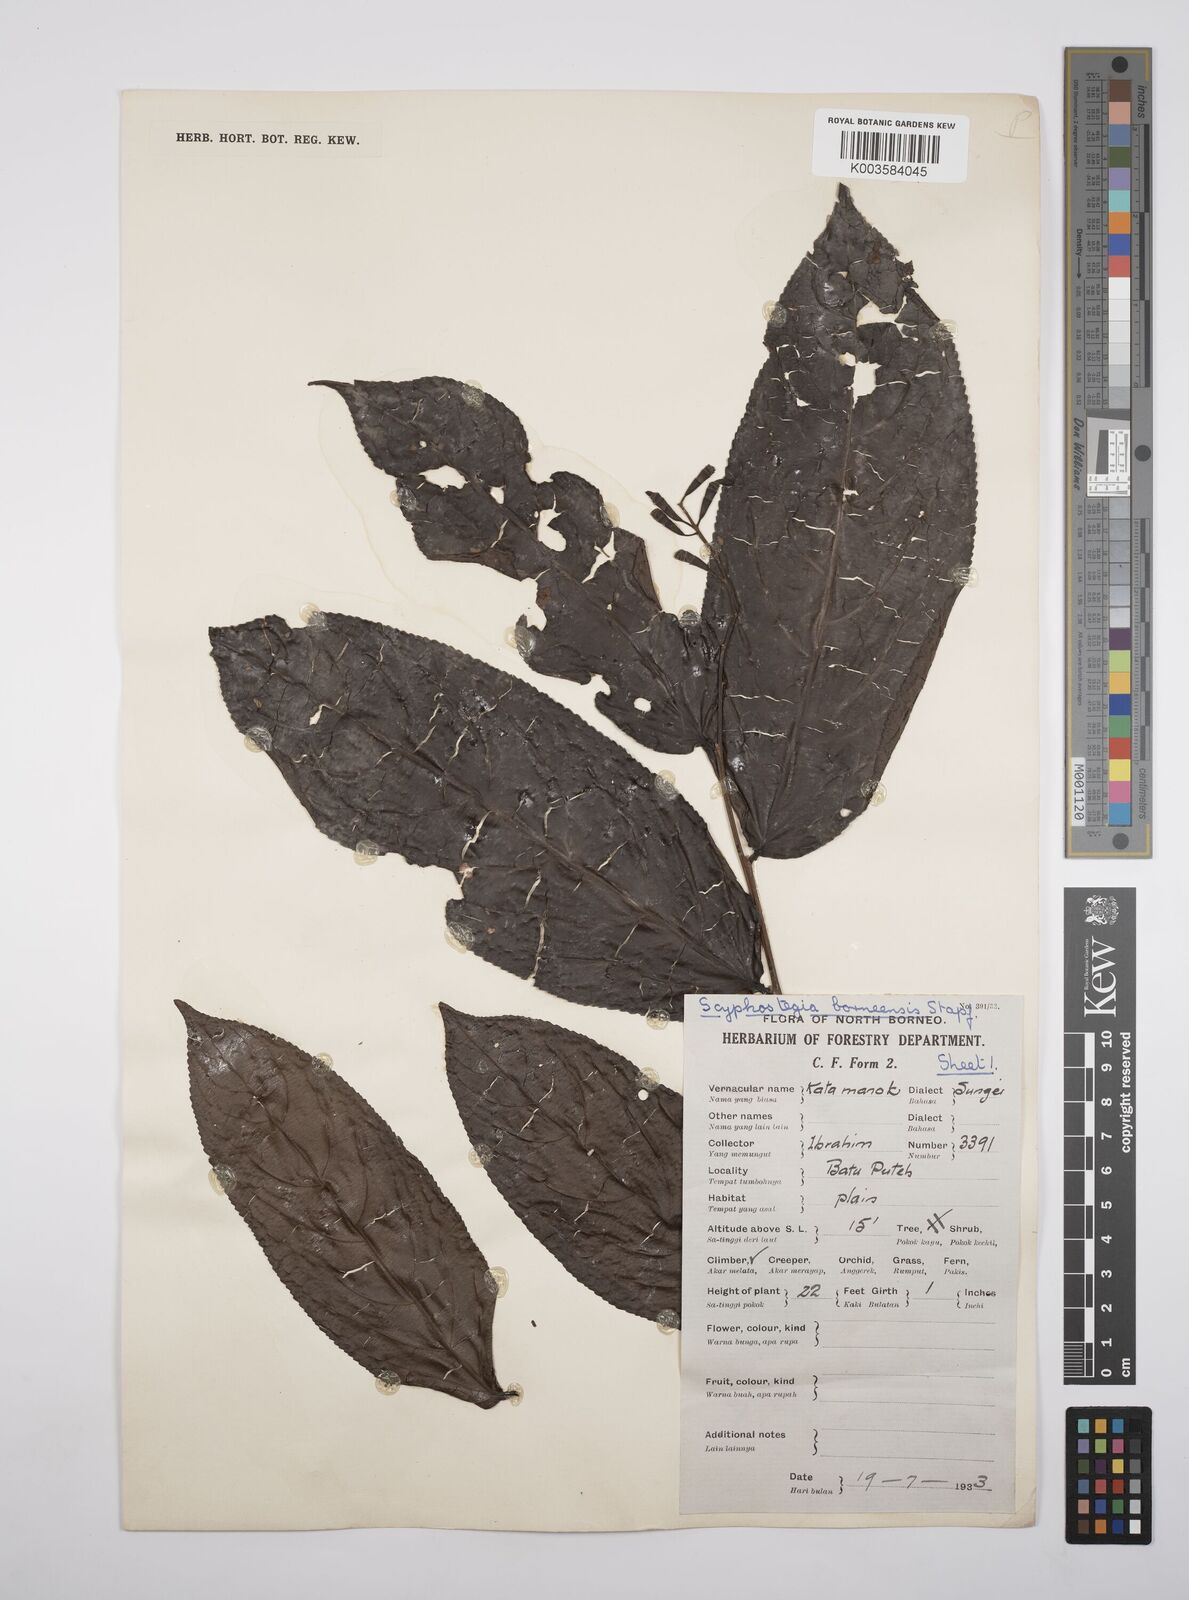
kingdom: Plantae
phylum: Tracheophyta
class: Magnoliopsida
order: Malpighiales
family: Salicaceae
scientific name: Salicaceae
